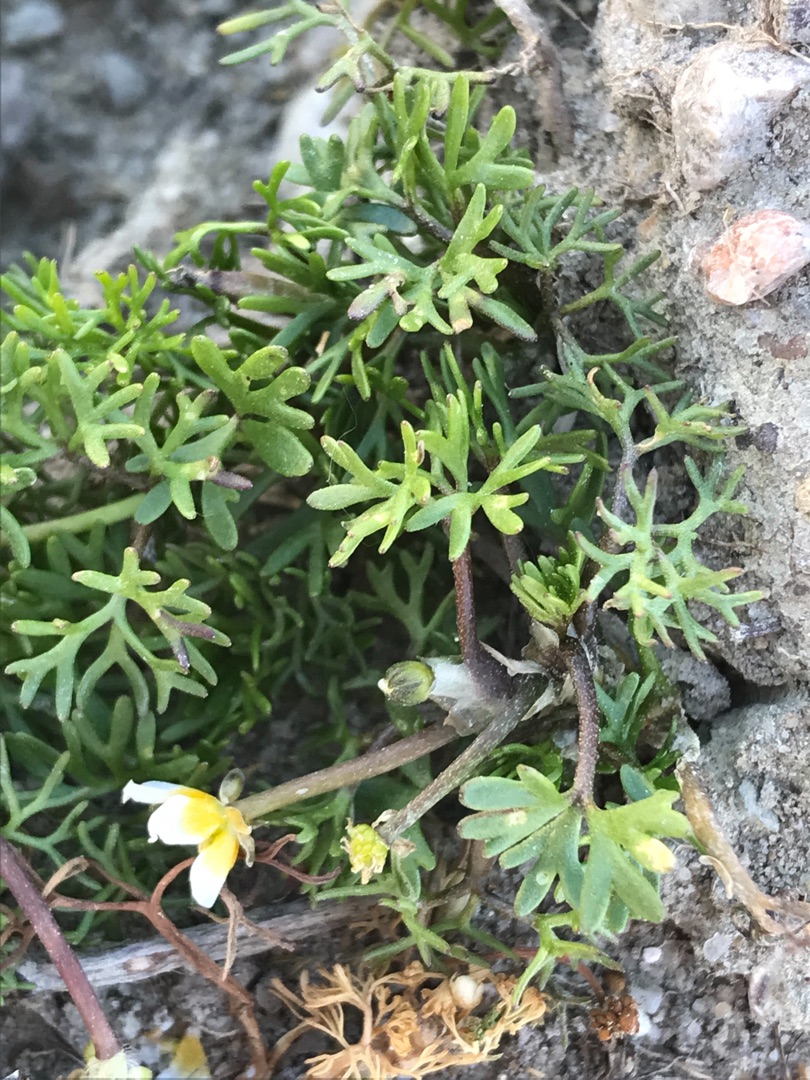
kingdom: Plantae
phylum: Tracheophyta
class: Magnoliopsida
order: Ranunculales
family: Ranunculaceae
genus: Ranunculus
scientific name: Ranunculus
